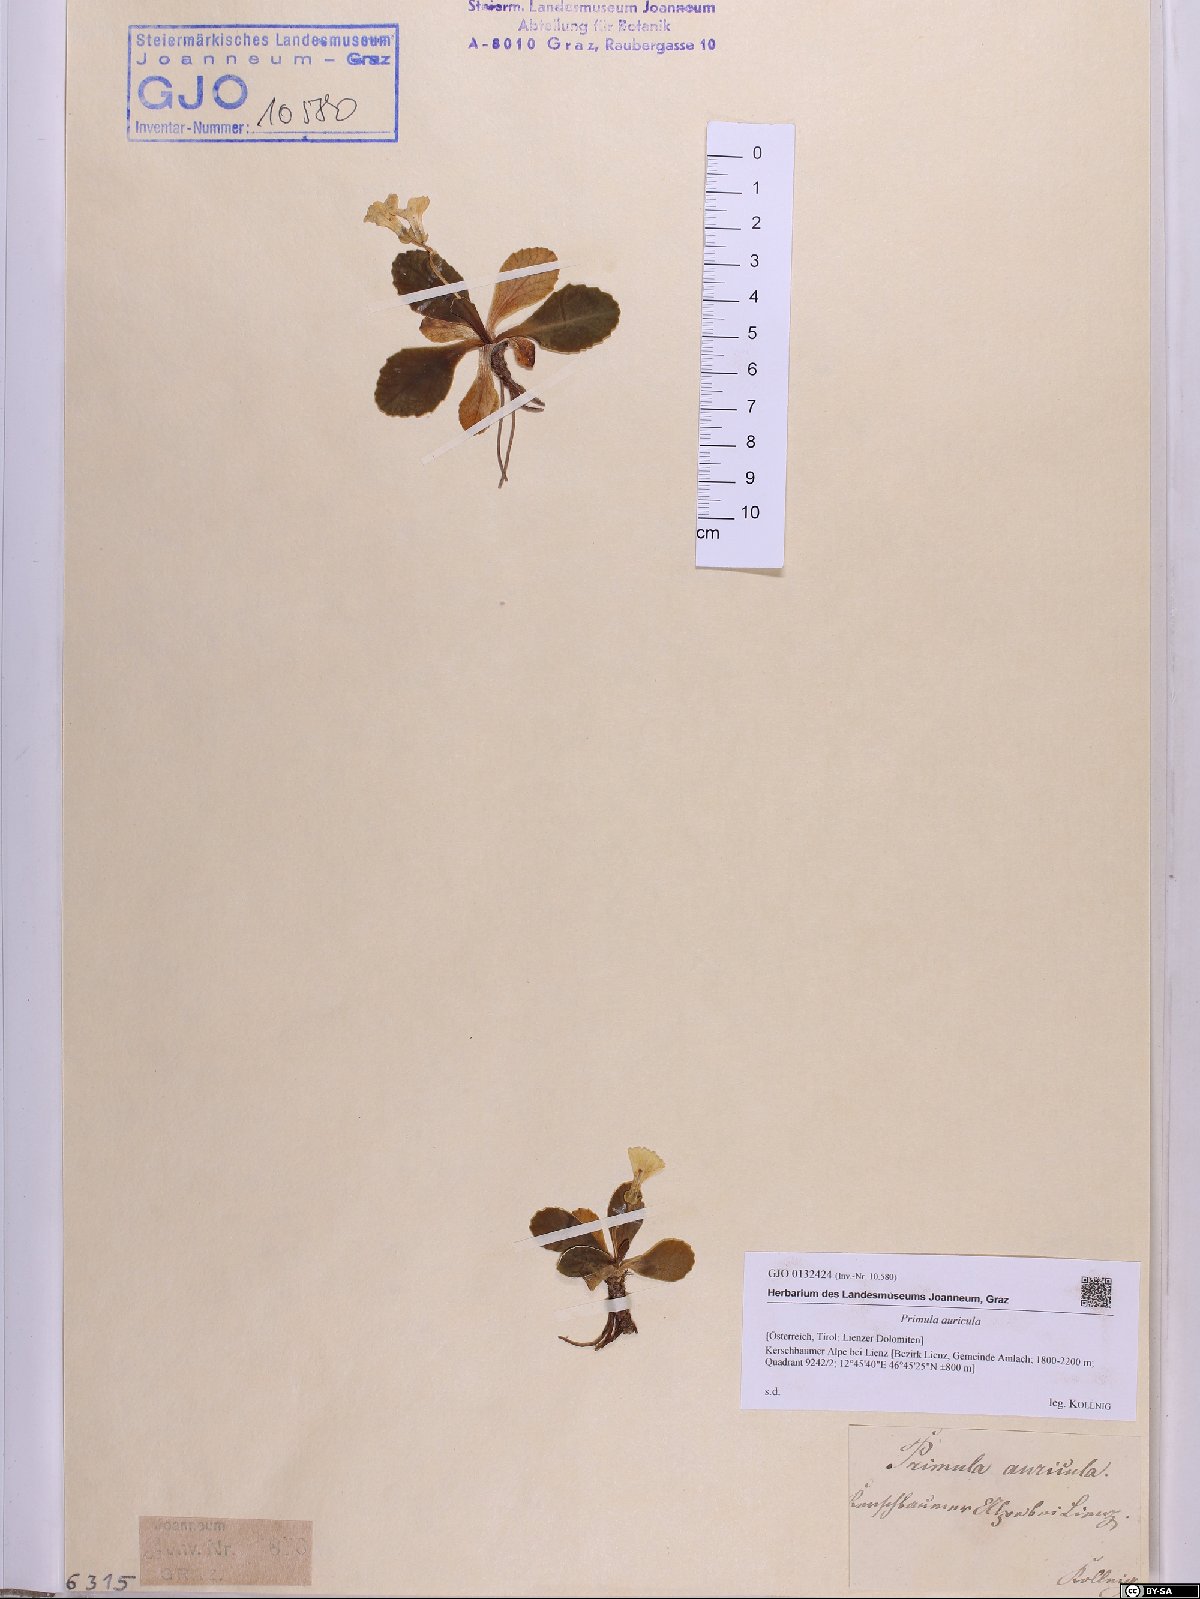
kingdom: Plantae
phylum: Tracheophyta
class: Magnoliopsida
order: Ericales
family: Primulaceae
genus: Primula
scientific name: Primula auricula
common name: Auricula
